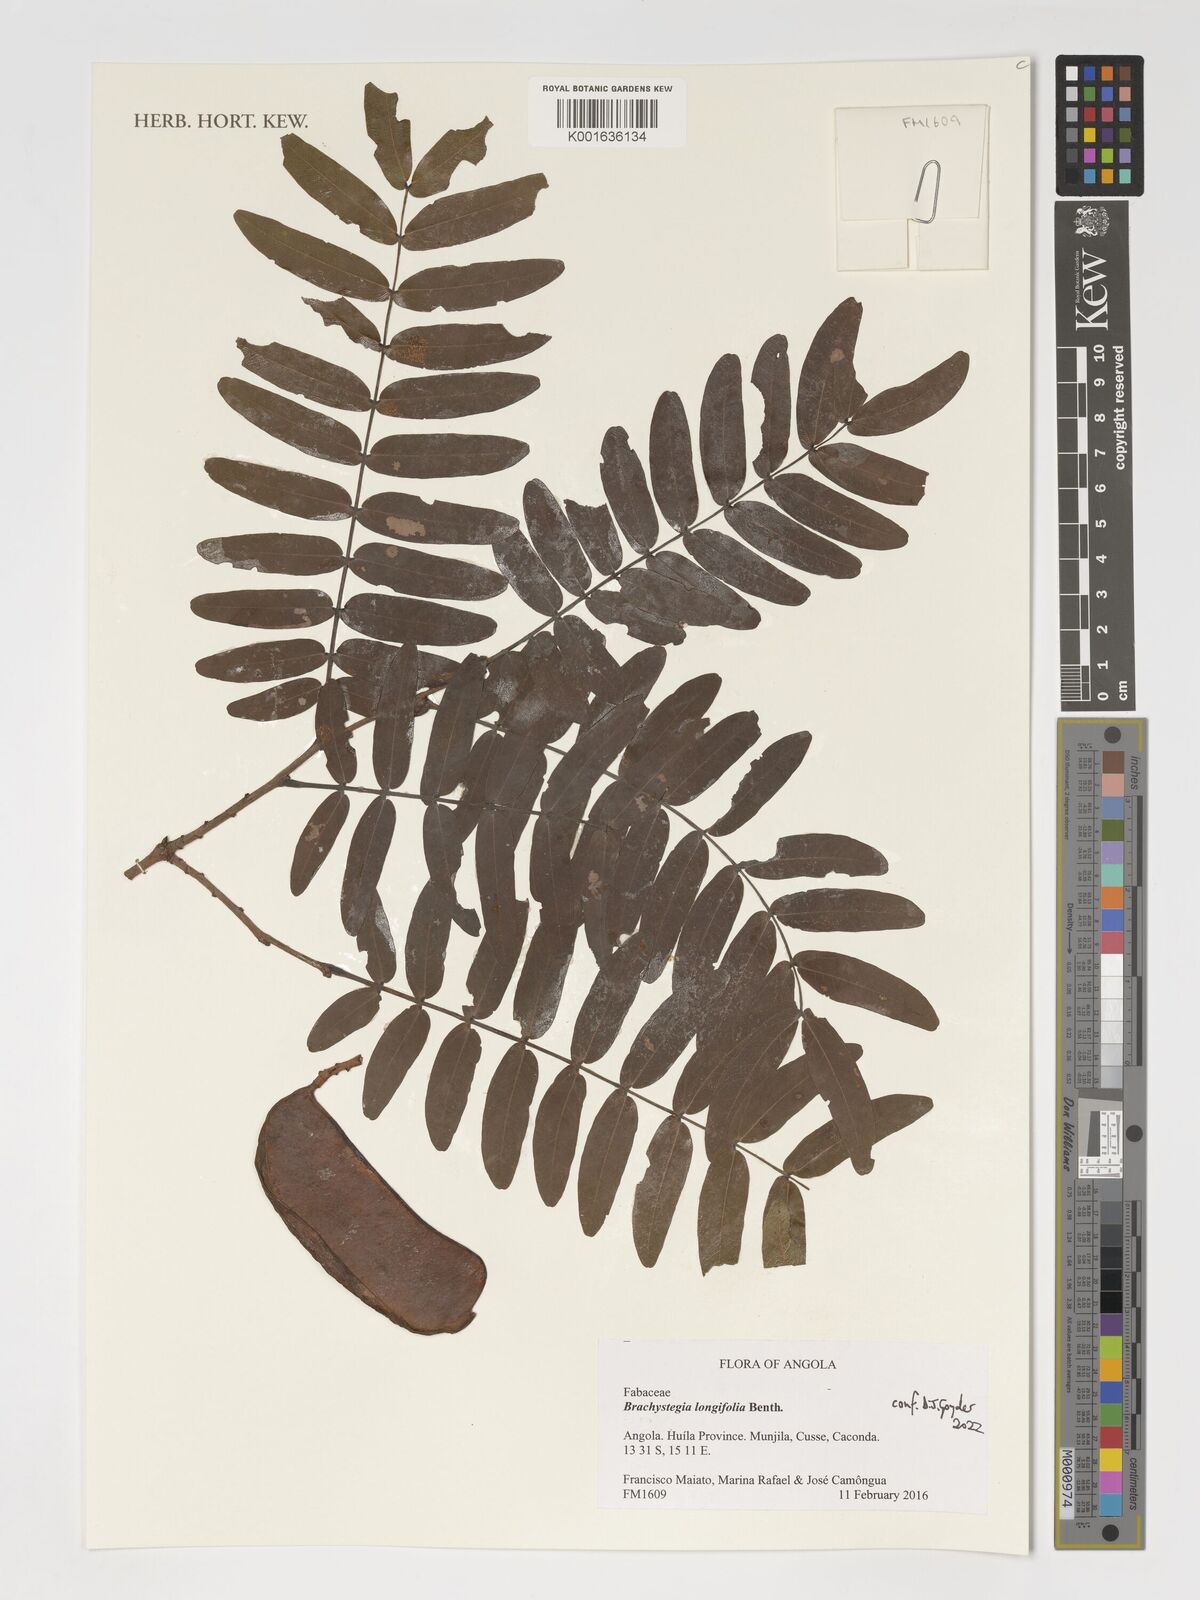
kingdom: Plantae
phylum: Tracheophyta
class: Magnoliopsida
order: Fabales
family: Fabaceae
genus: Brachystegia
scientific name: Brachystegia longifolia
